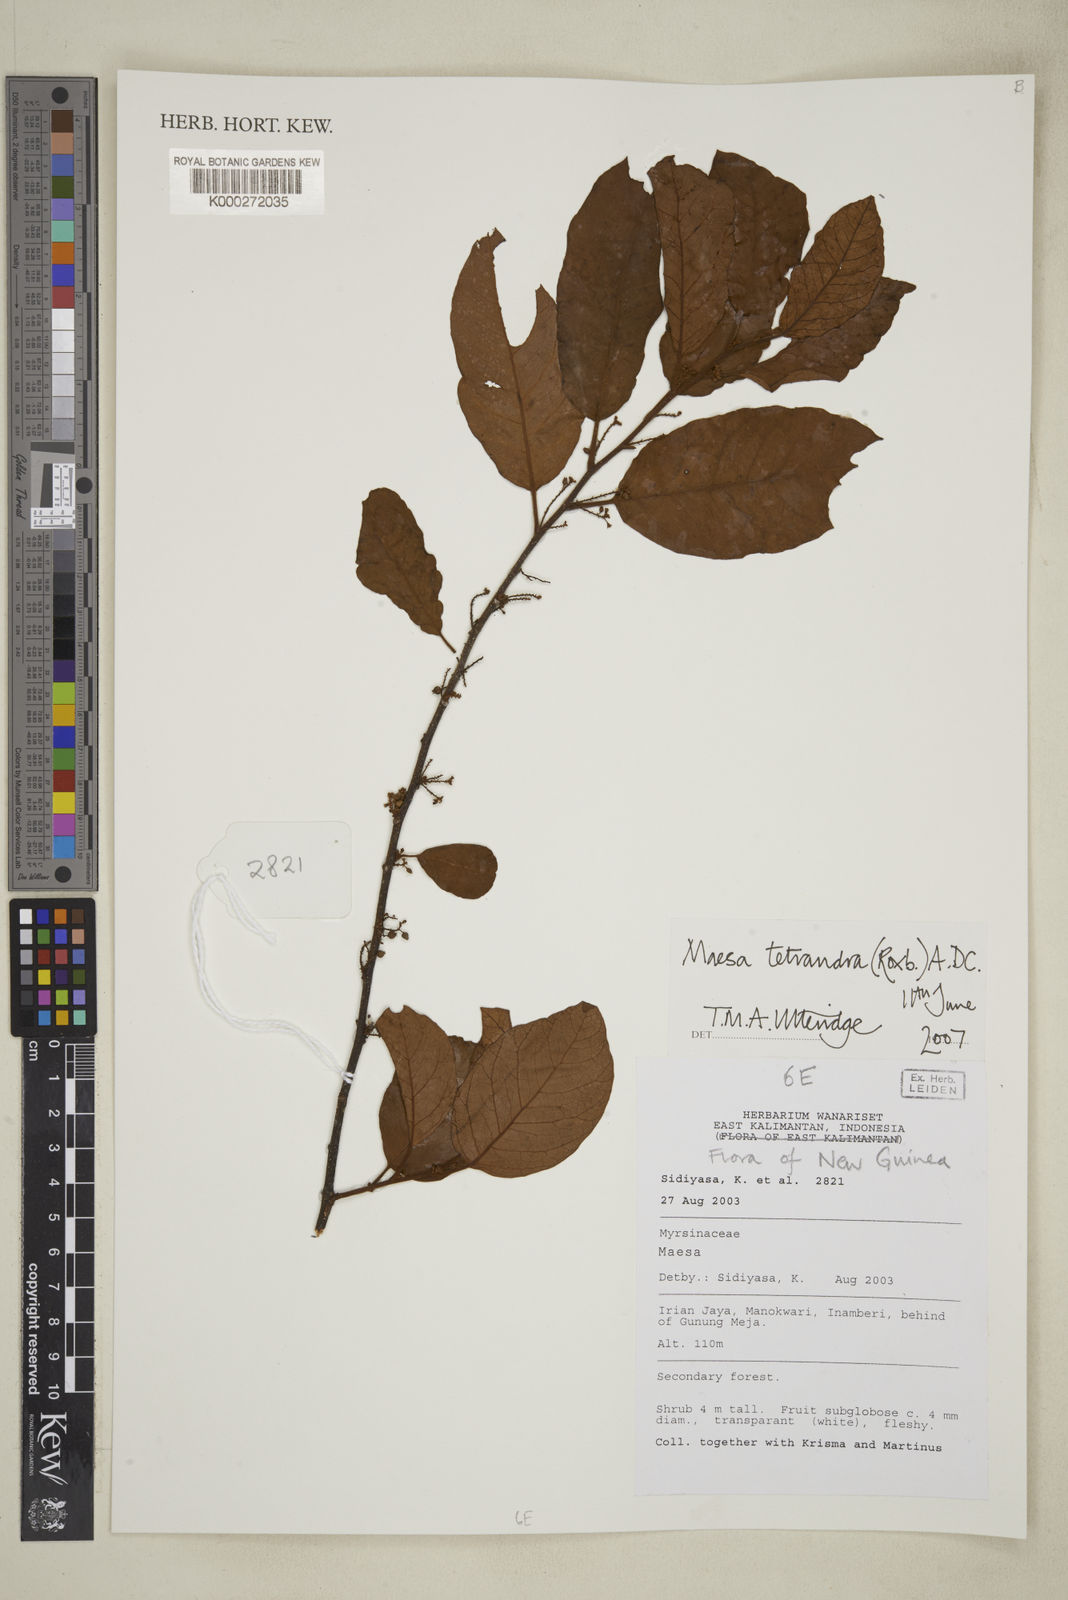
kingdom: Plantae
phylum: Tracheophyta
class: Magnoliopsida
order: Ericales
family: Primulaceae
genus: Maesa
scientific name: Maesa tetrandra
